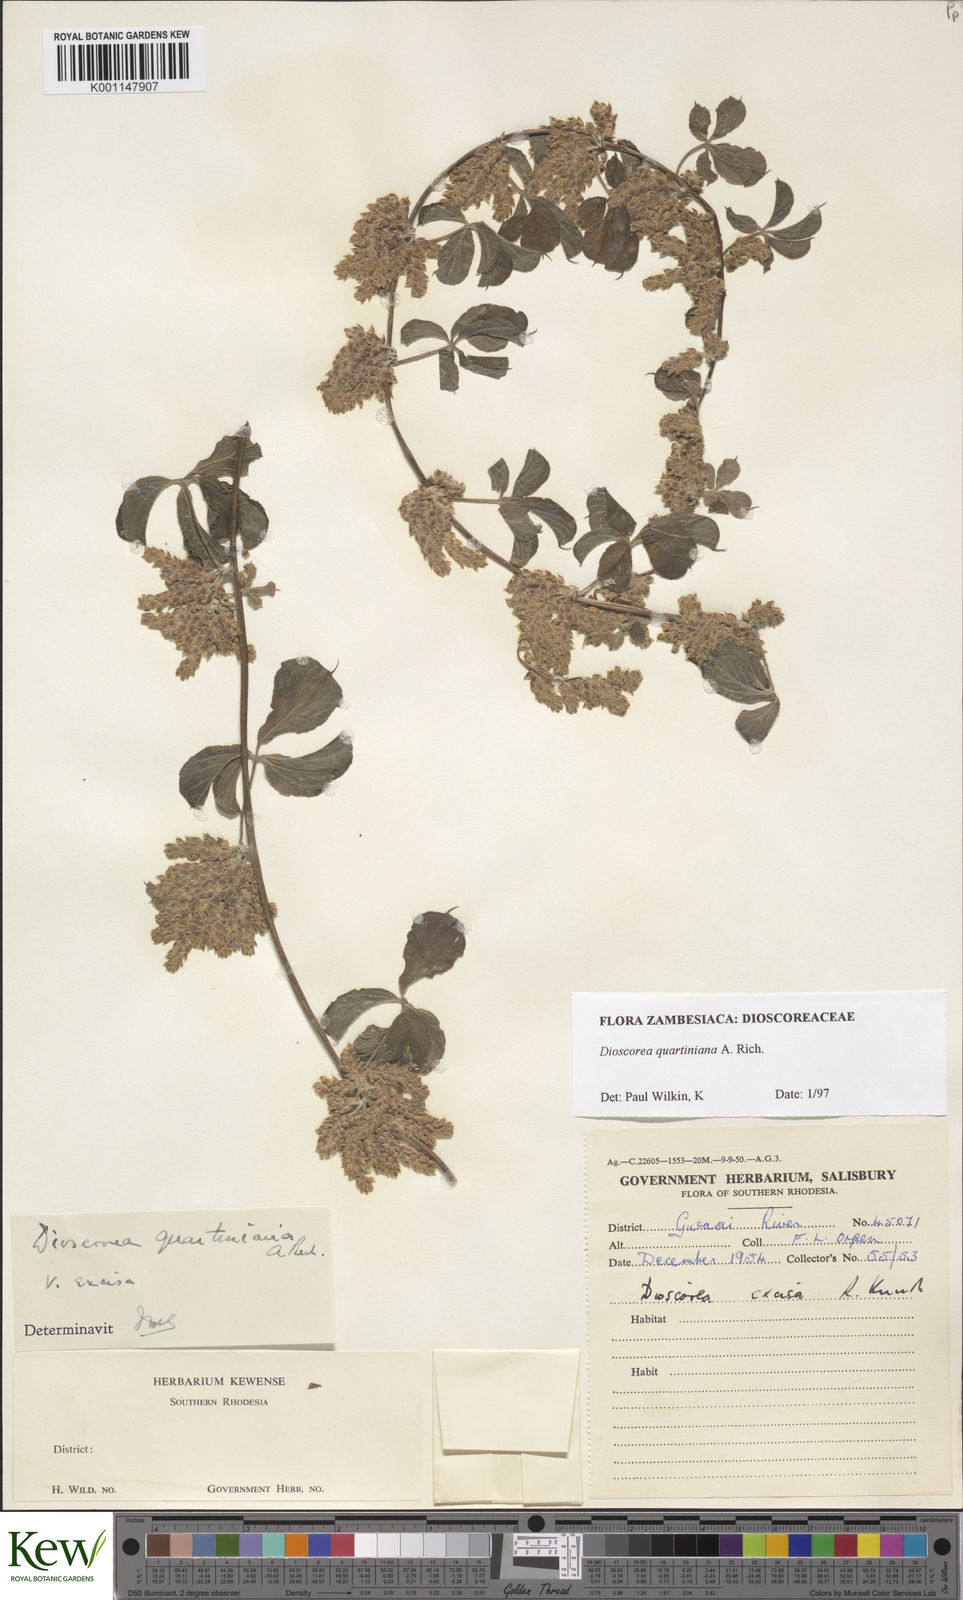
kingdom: Plantae
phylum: Tracheophyta
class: Liliopsida
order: Dioscoreales
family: Dioscoreaceae
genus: Dioscorea
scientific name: Dioscorea quartiniana
